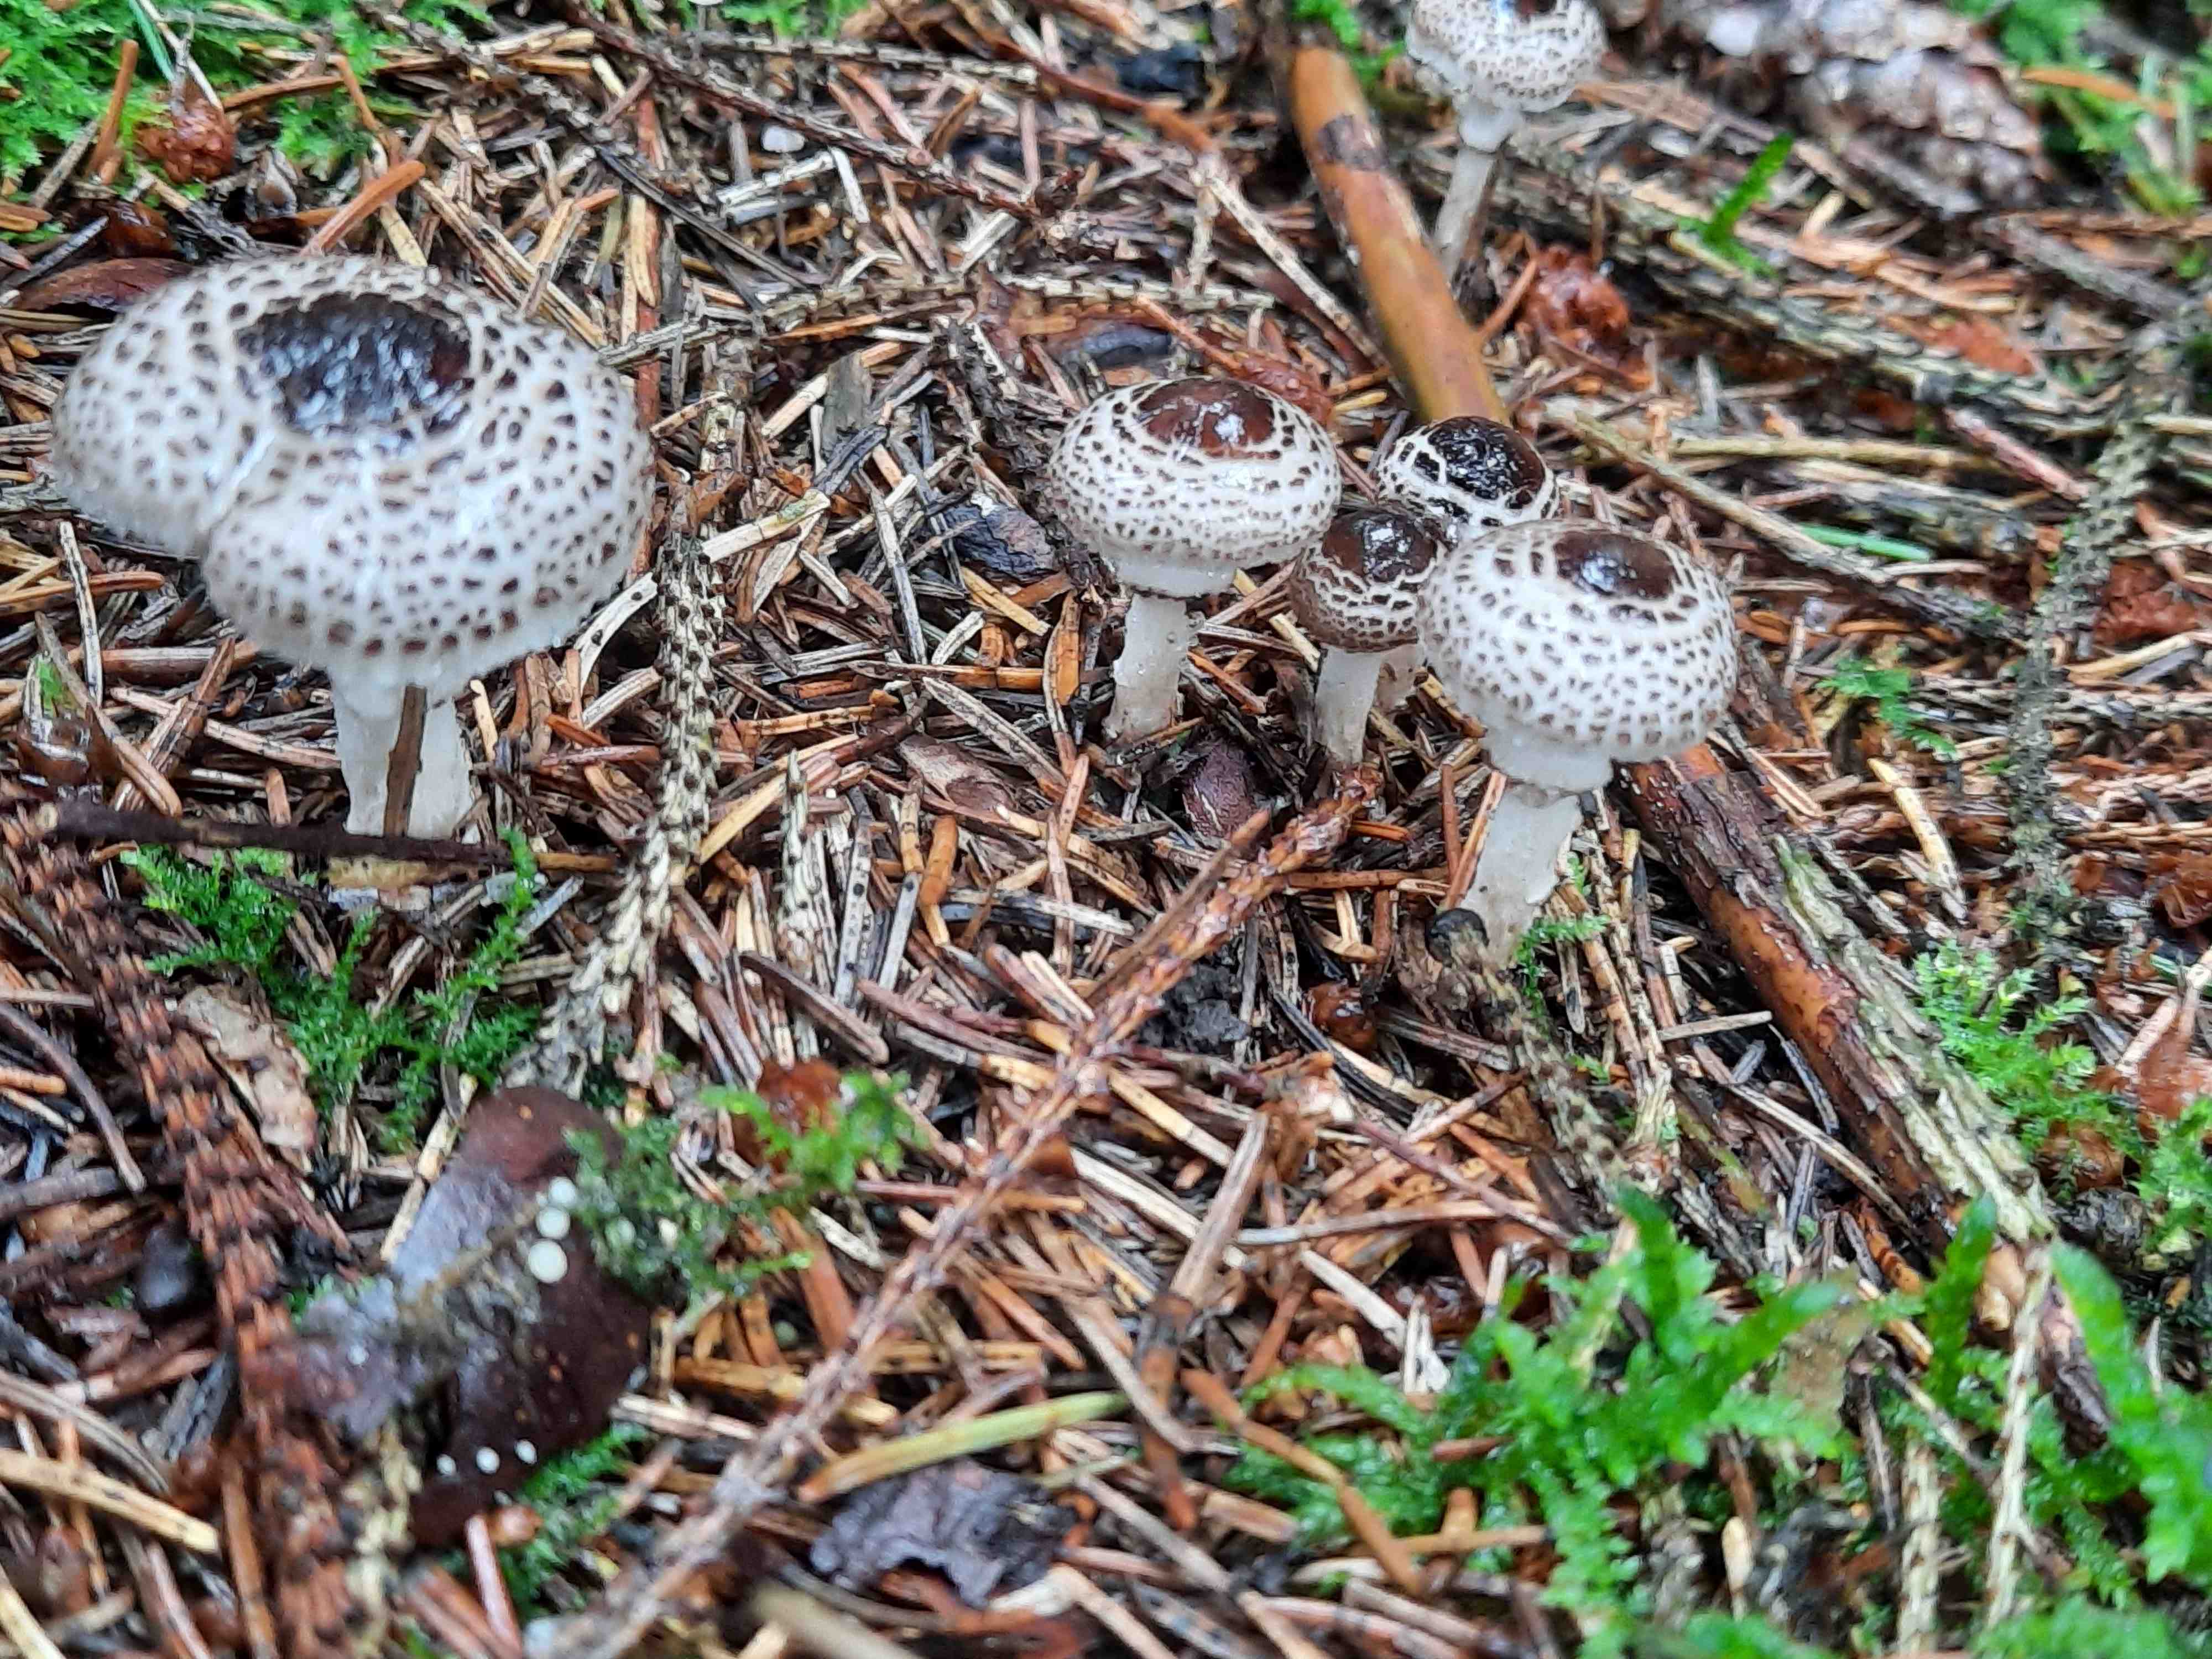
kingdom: Fungi
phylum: Basidiomycota
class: Agaricomycetes
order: Agaricales
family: Agaricaceae
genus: Lepiota
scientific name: Lepiota felina
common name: sortskællet parasolhat
